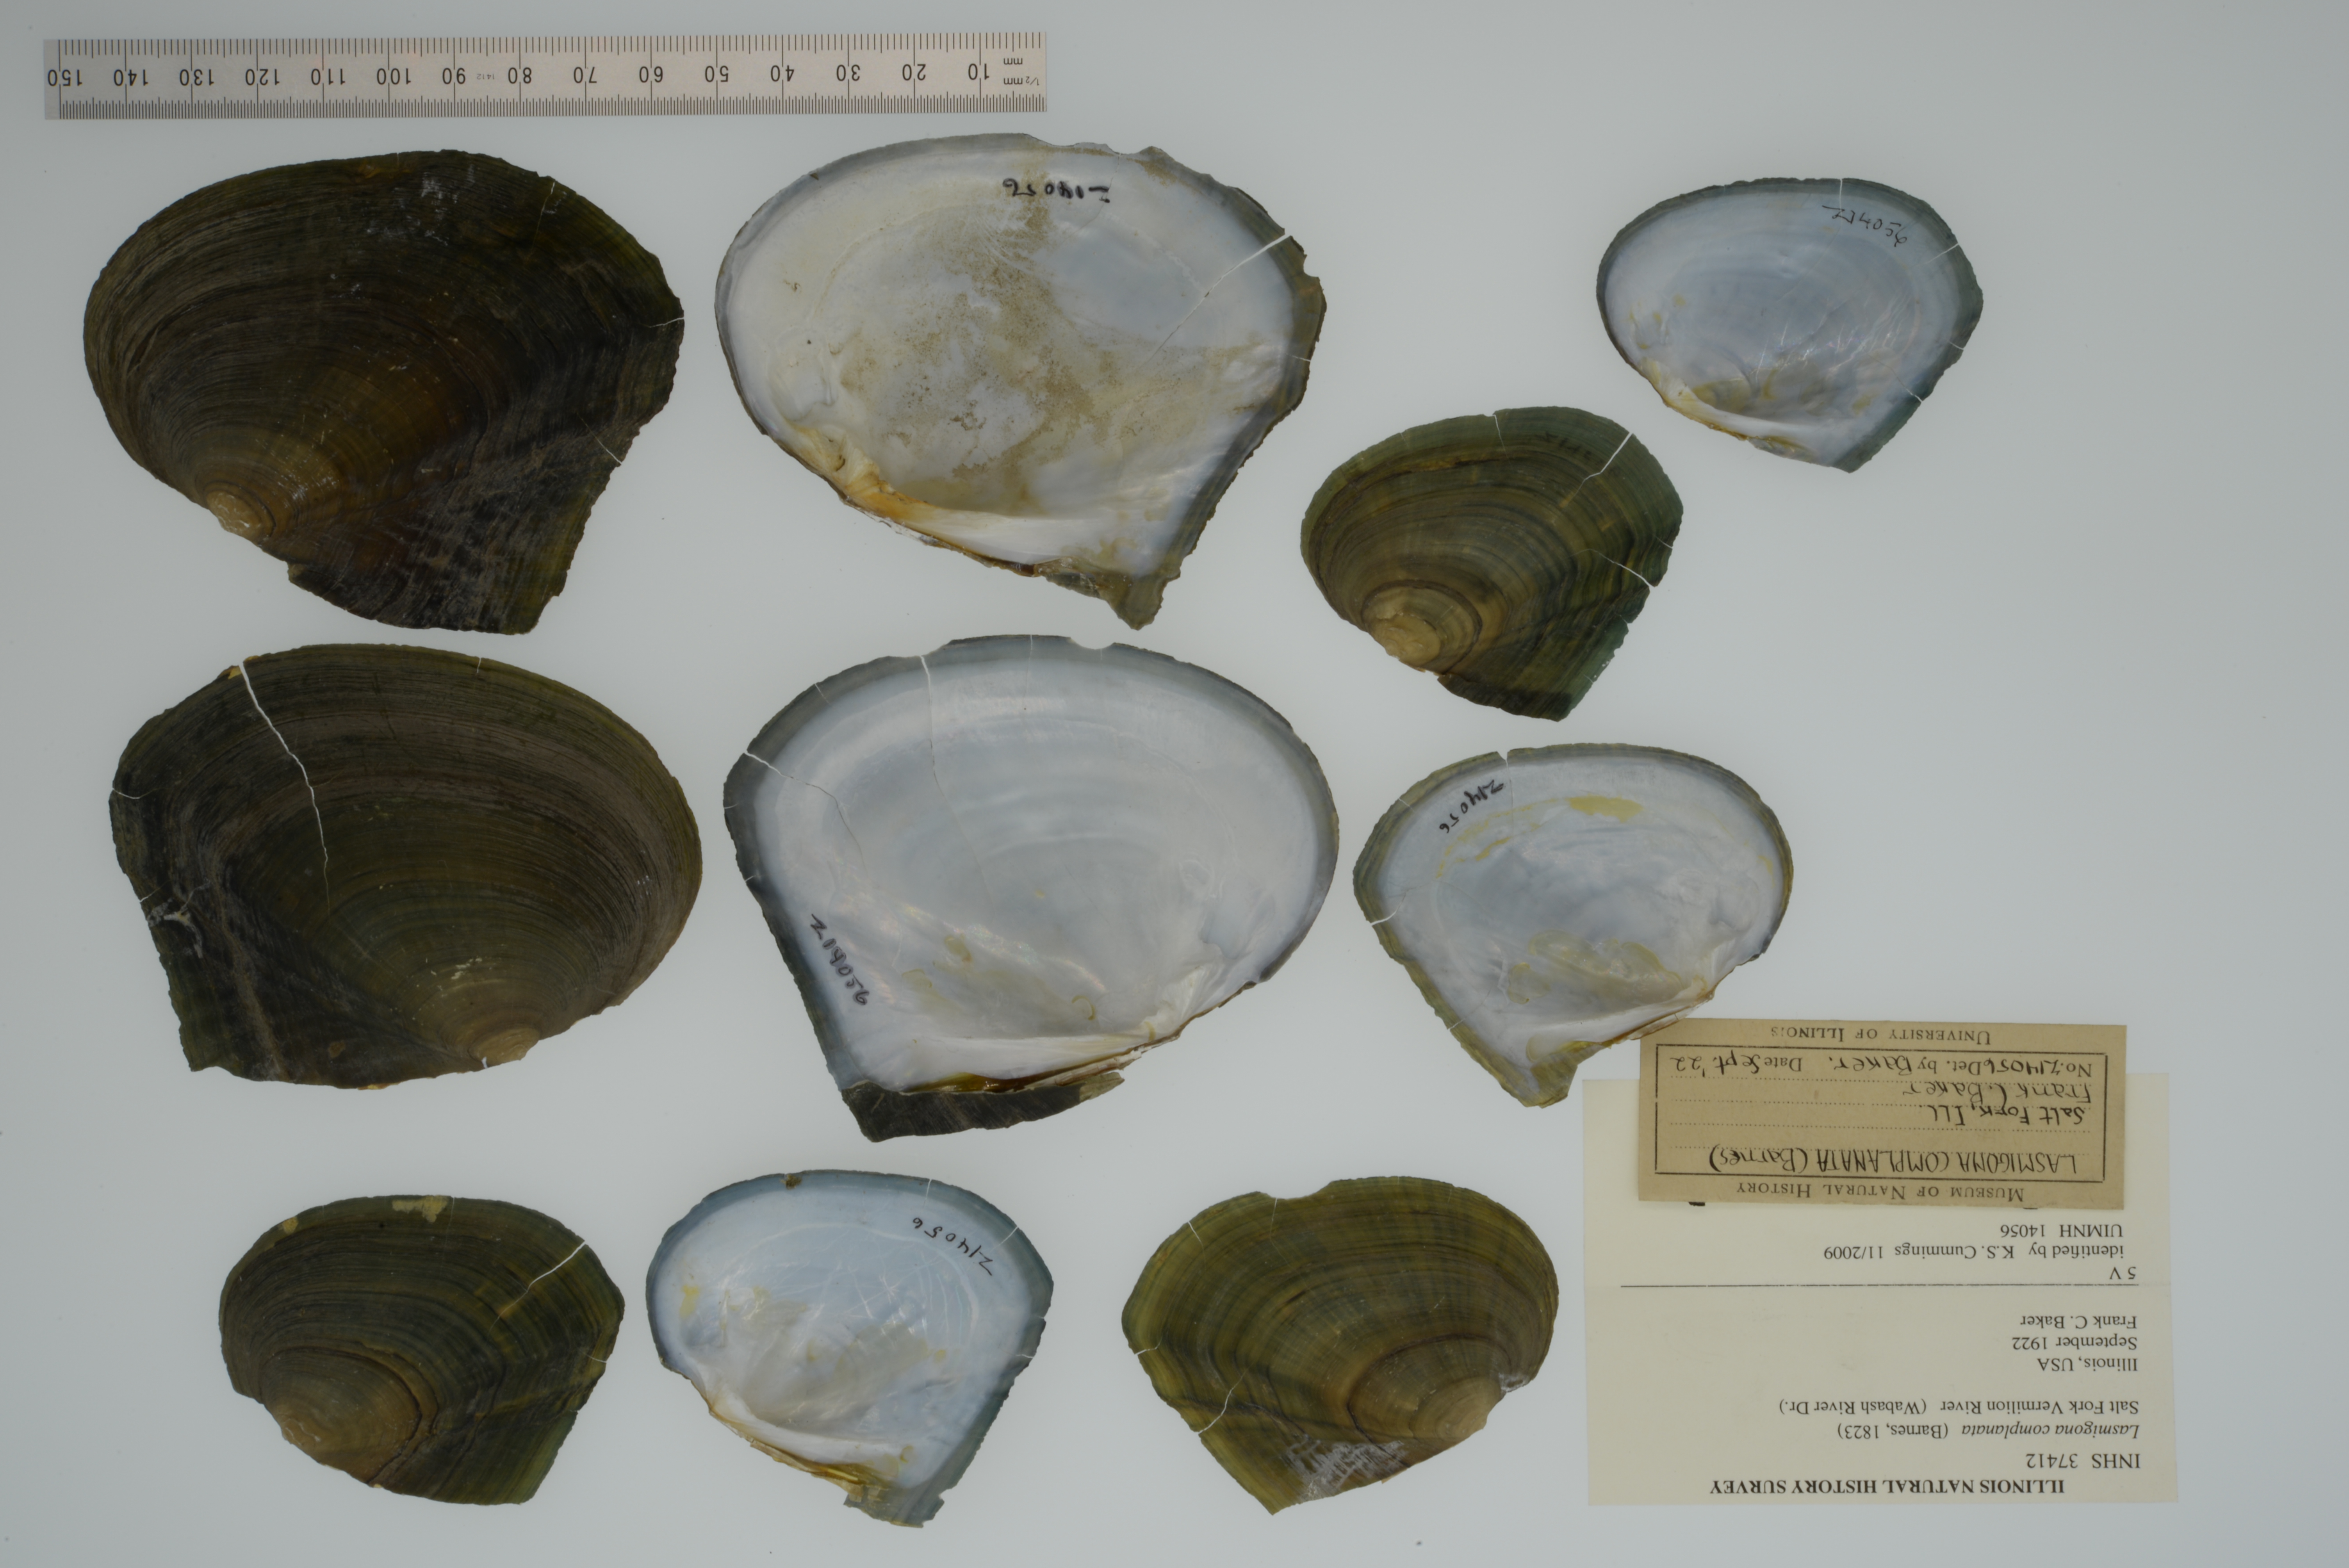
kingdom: Animalia
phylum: Mollusca
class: Bivalvia
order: Unionida
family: Unionidae
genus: Lasmigona
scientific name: Lasmigona complanata
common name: White heelsplitter
